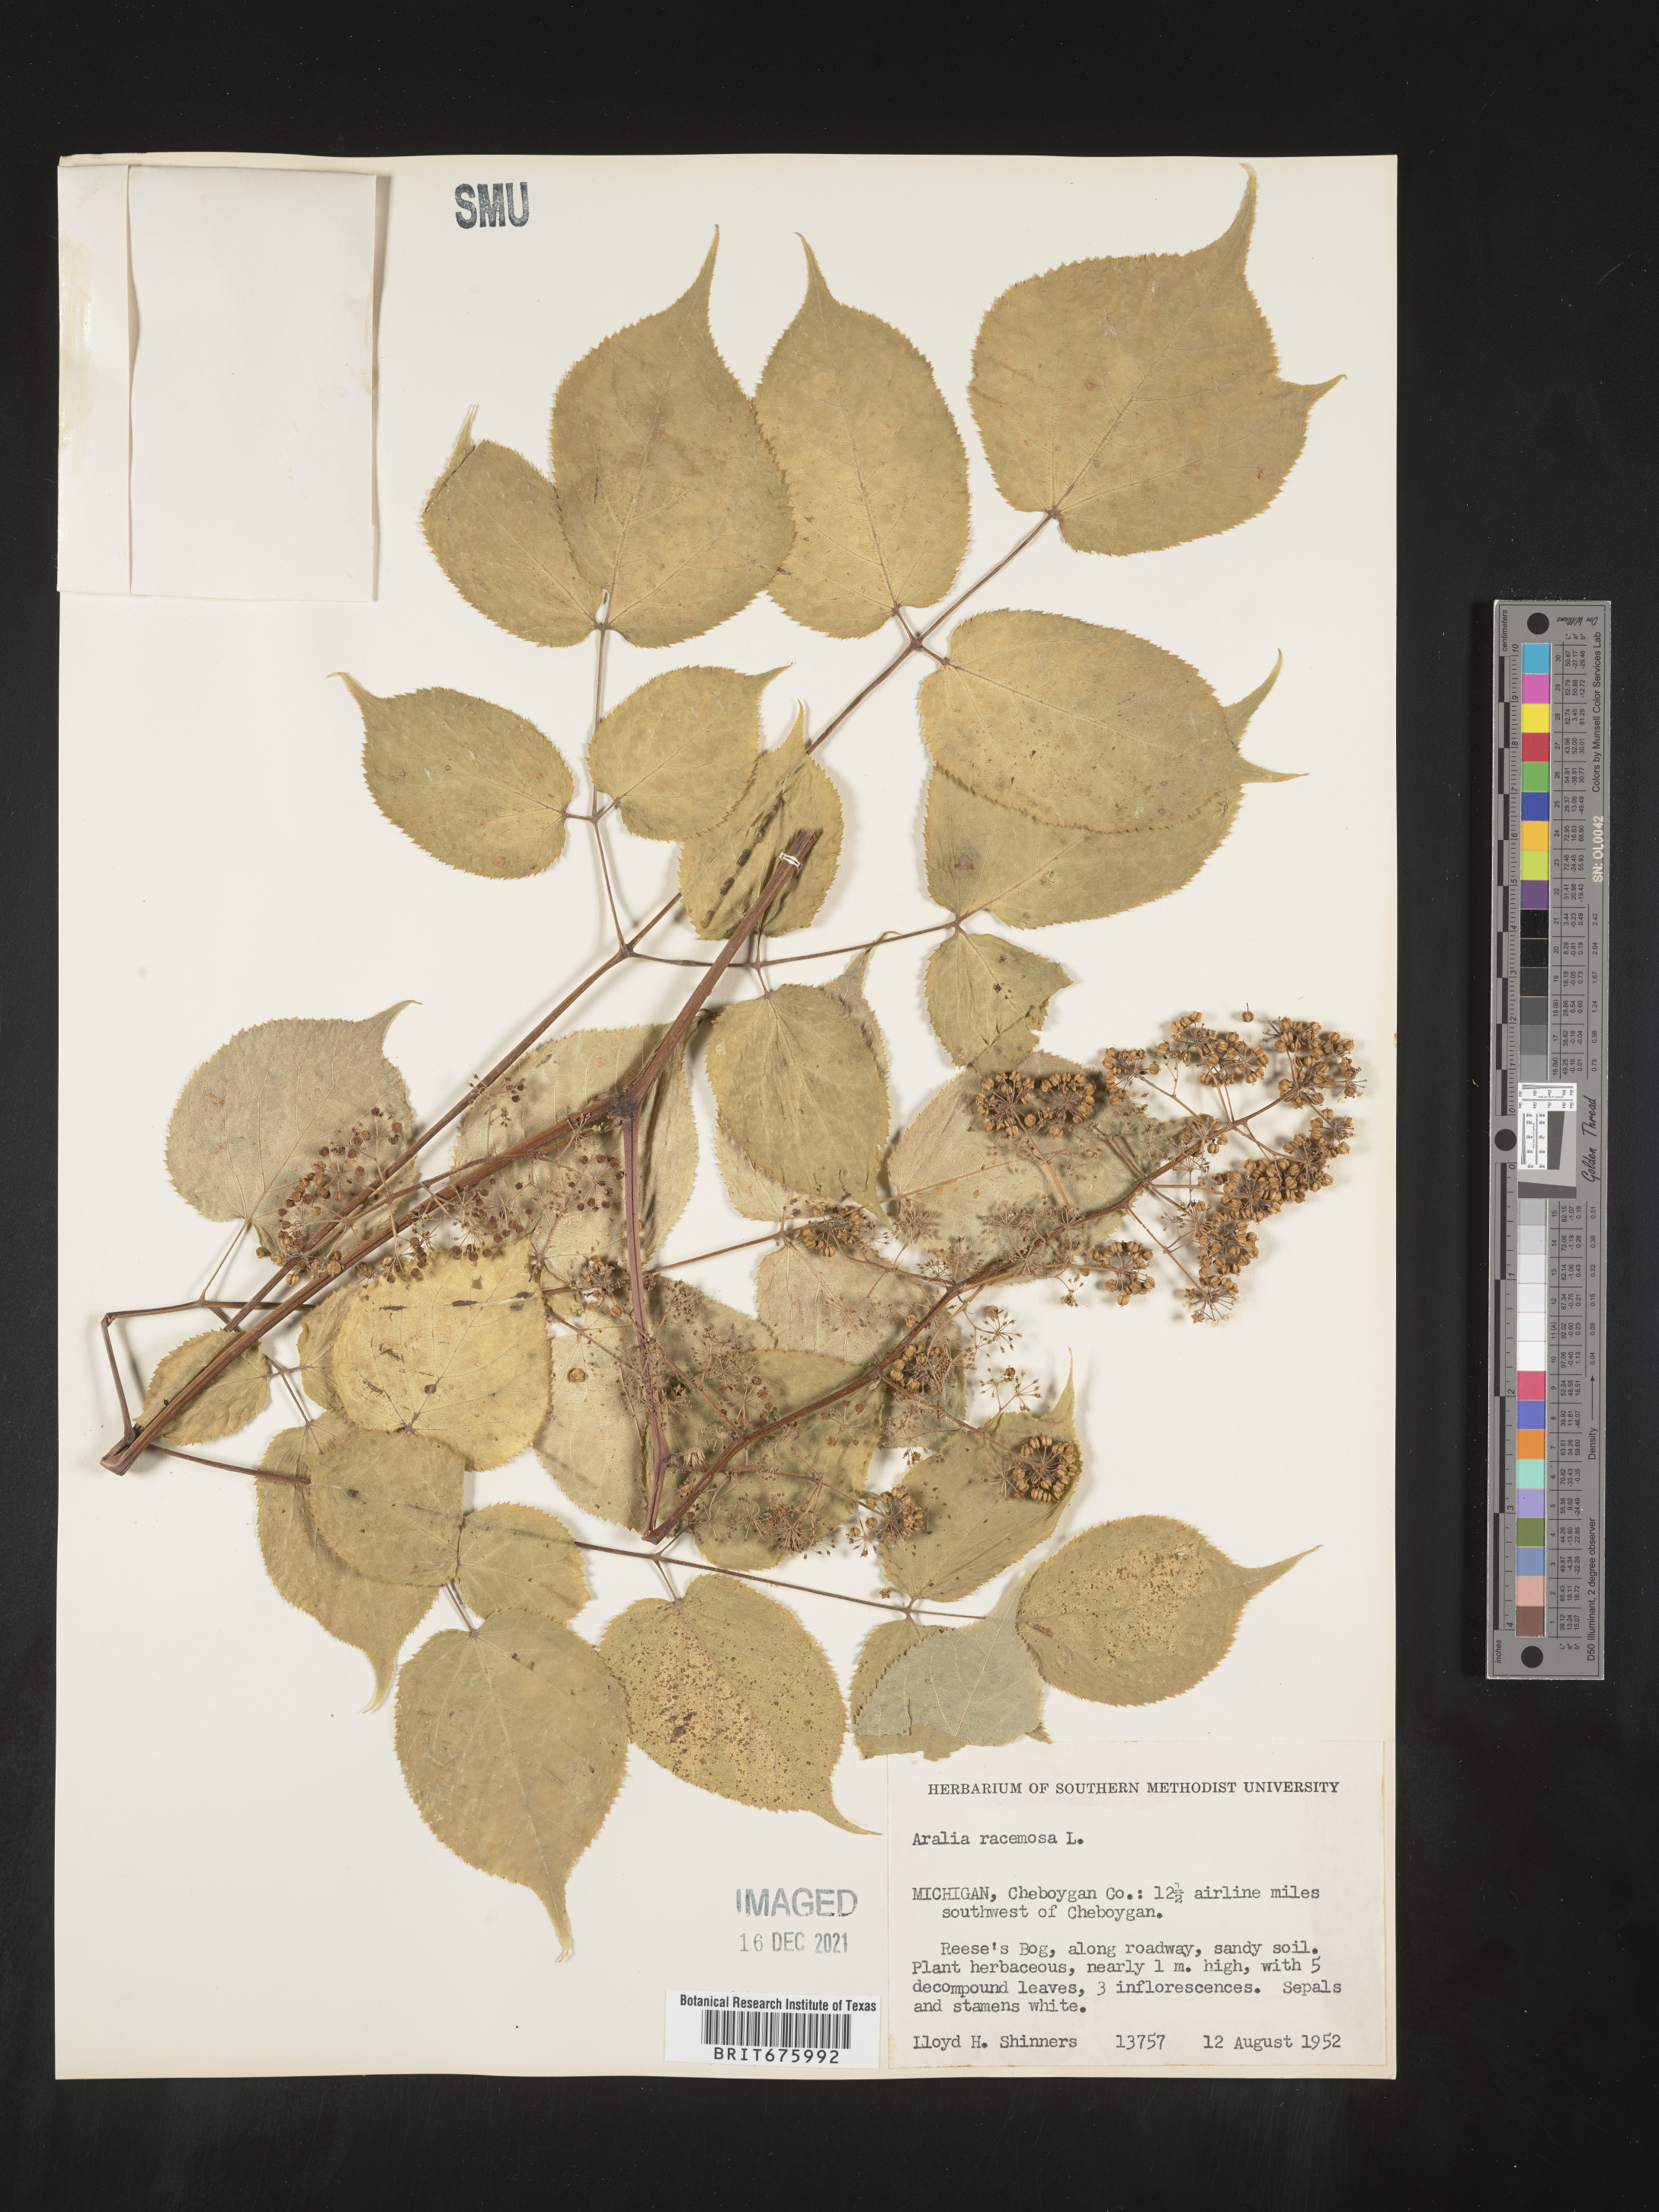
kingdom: Plantae
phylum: Tracheophyta
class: Magnoliopsida
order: Apiales
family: Araliaceae
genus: Aralia
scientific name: Aralia racemosa
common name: American-spikenard
